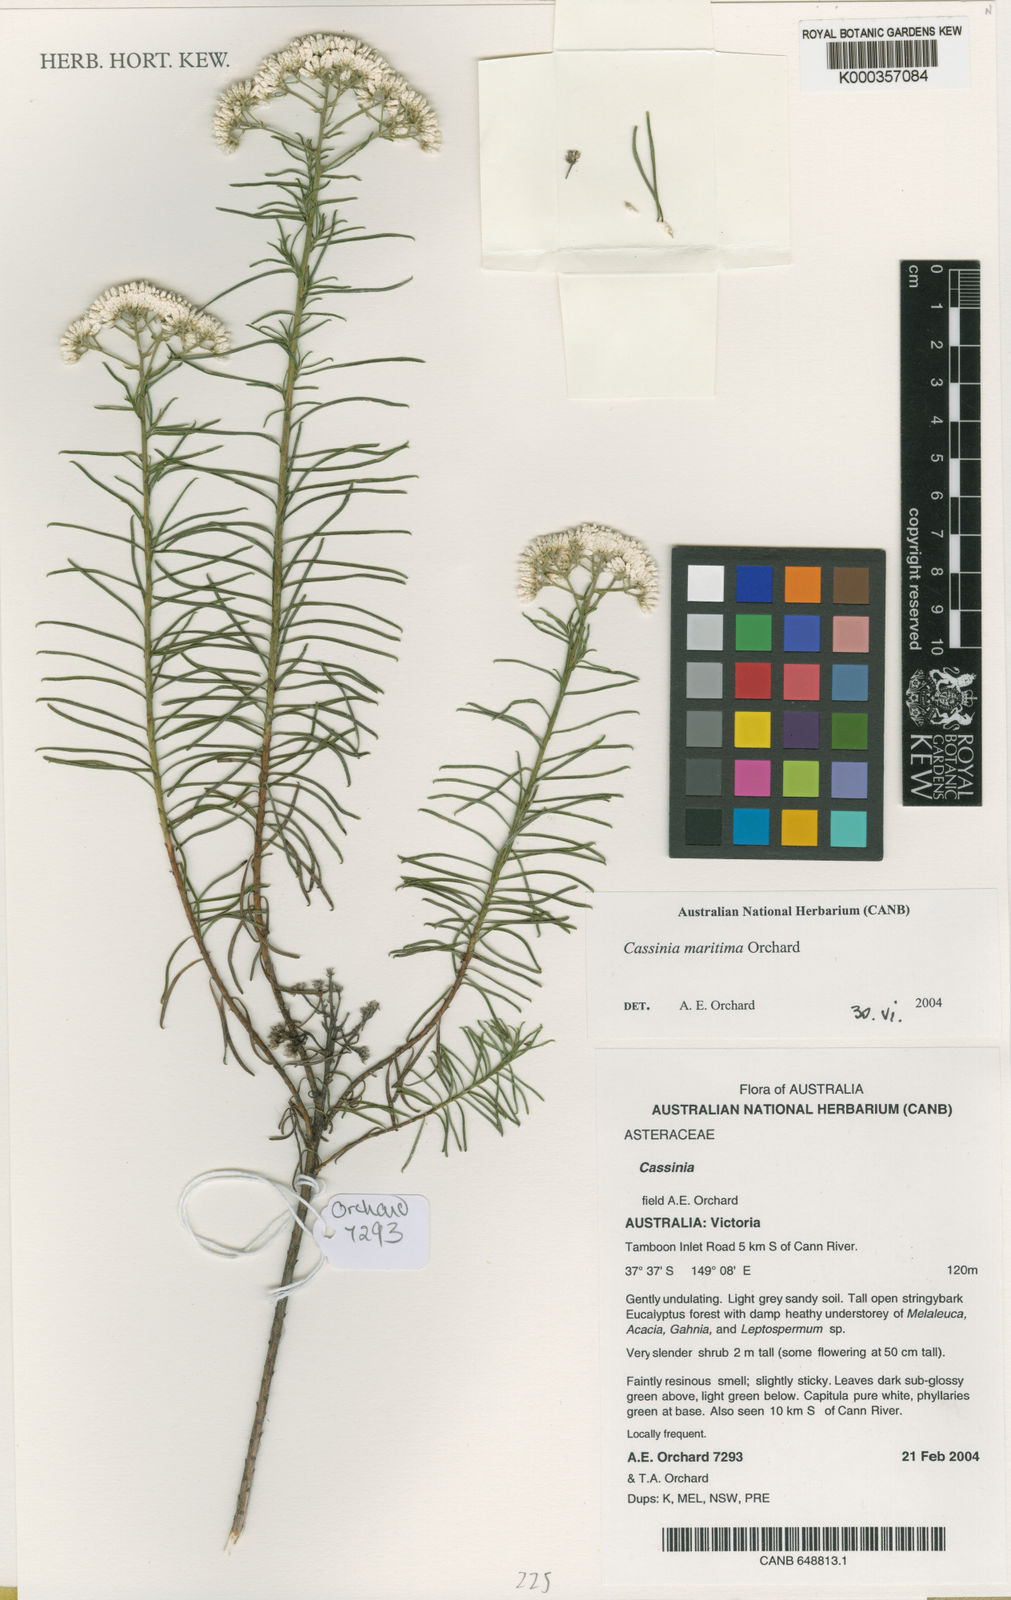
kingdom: Plantae
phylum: Tracheophyta
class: Magnoliopsida
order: Asterales
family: Asteraceae
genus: Cassinia
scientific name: Cassinia maritima
